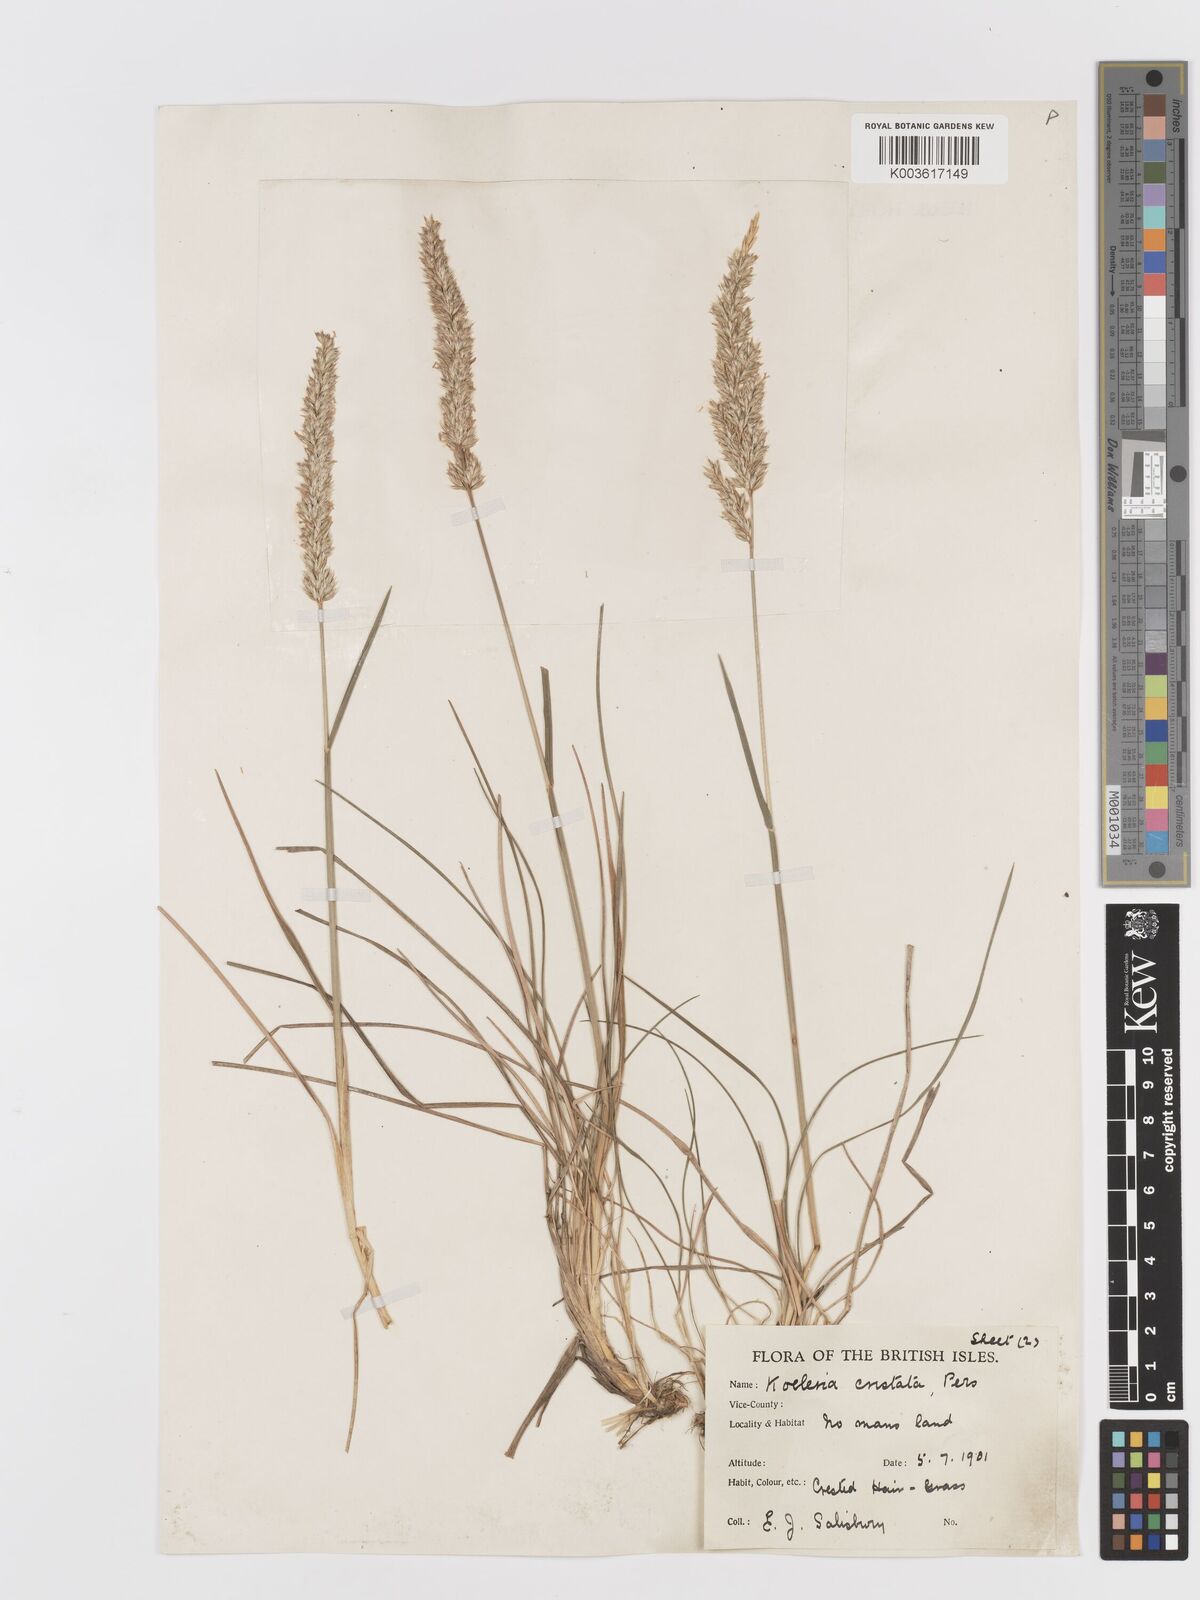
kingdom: Plantae
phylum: Tracheophyta
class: Liliopsida
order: Poales
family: Poaceae
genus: Koeleria
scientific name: Koeleria macrantha
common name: Crested hair-grass
